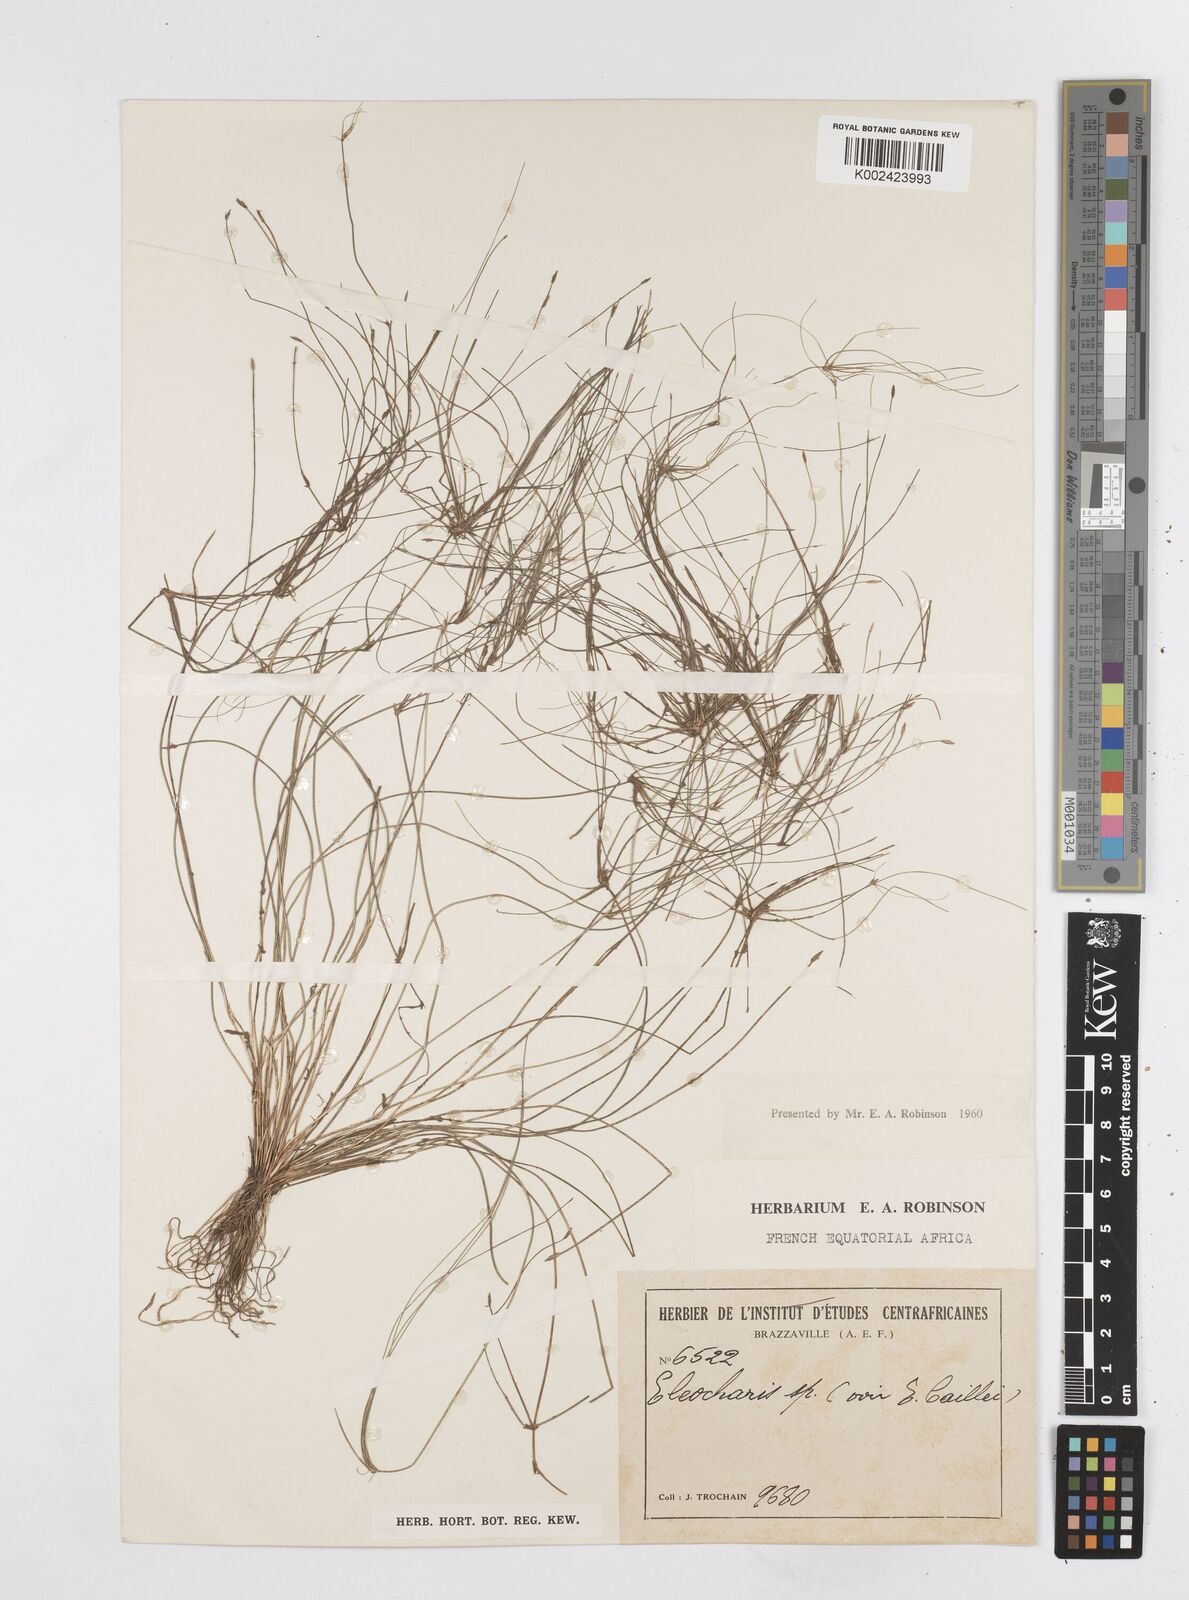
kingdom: Plantae
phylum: Tracheophyta
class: Liliopsida
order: Poales
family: Cyperaceae
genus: Eleocharis
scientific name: Eleocharis naumanniana
